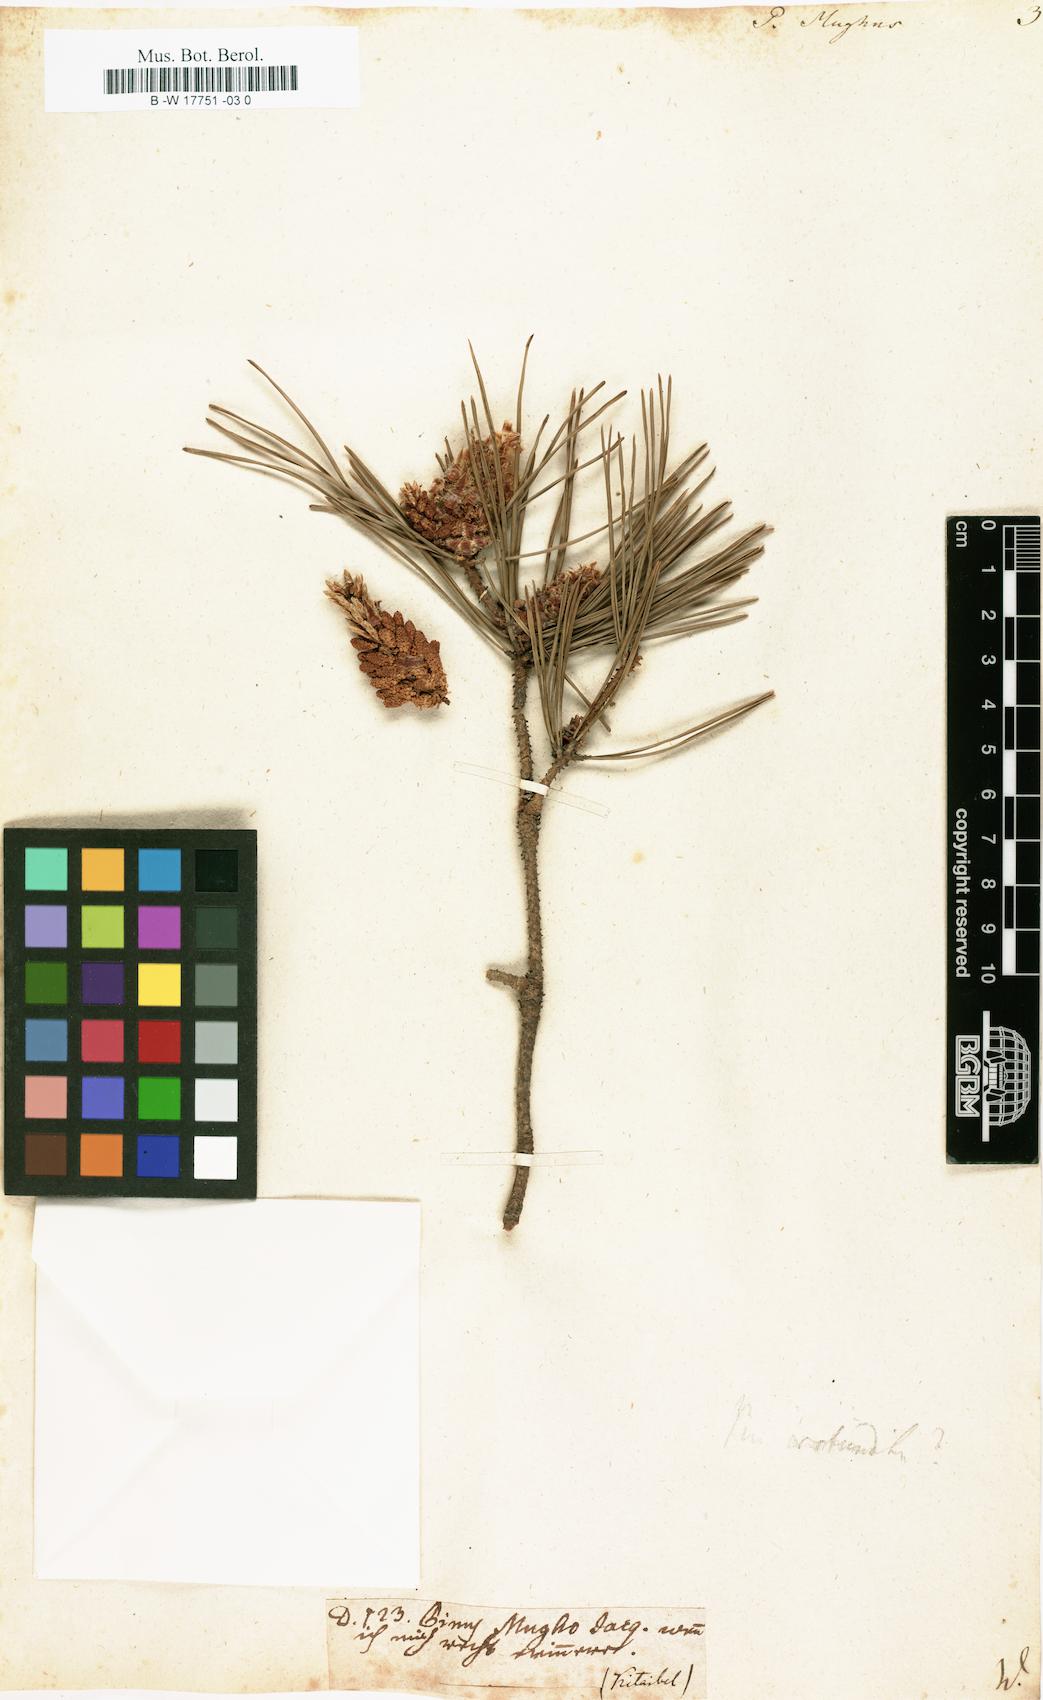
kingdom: Plantae
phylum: Tracheophyta
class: Pinopsida
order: Pinales
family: Pinaceae
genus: Pinus
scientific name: Pinus
